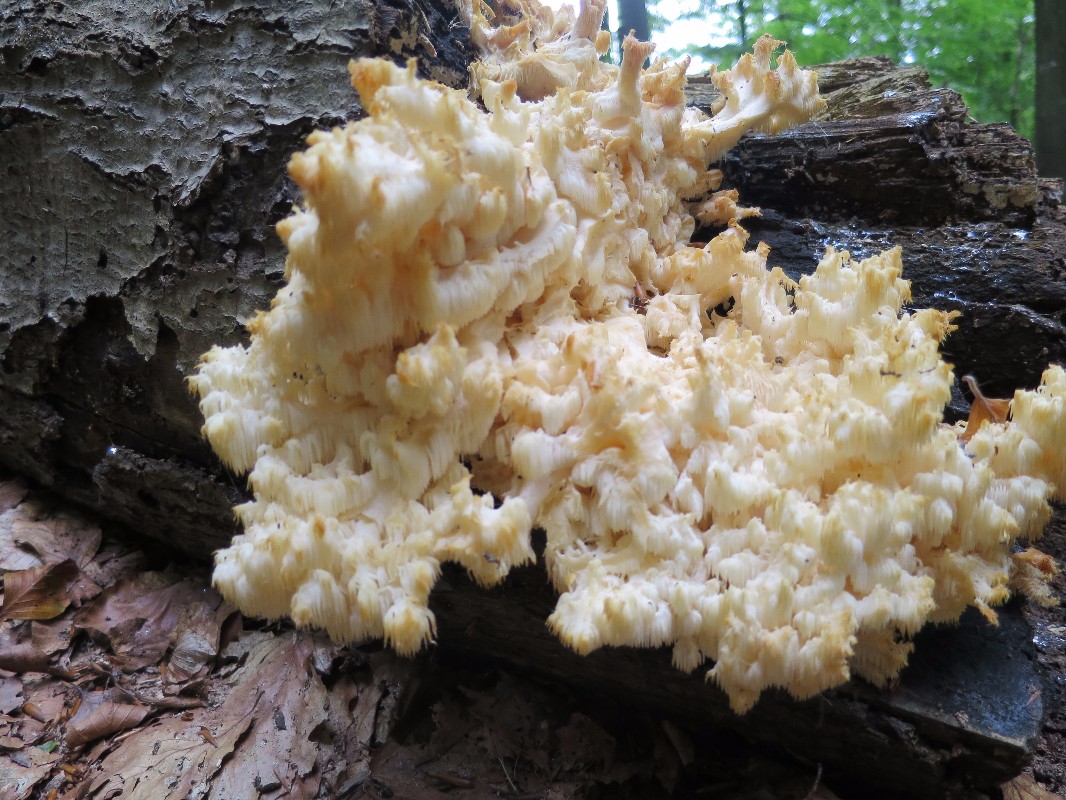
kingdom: Fungi
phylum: Basidiomycota
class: Agaricomycetes
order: Russulales
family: Hericiaceae
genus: Hericium
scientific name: Hericium coralloides
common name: koralpigsvamp
